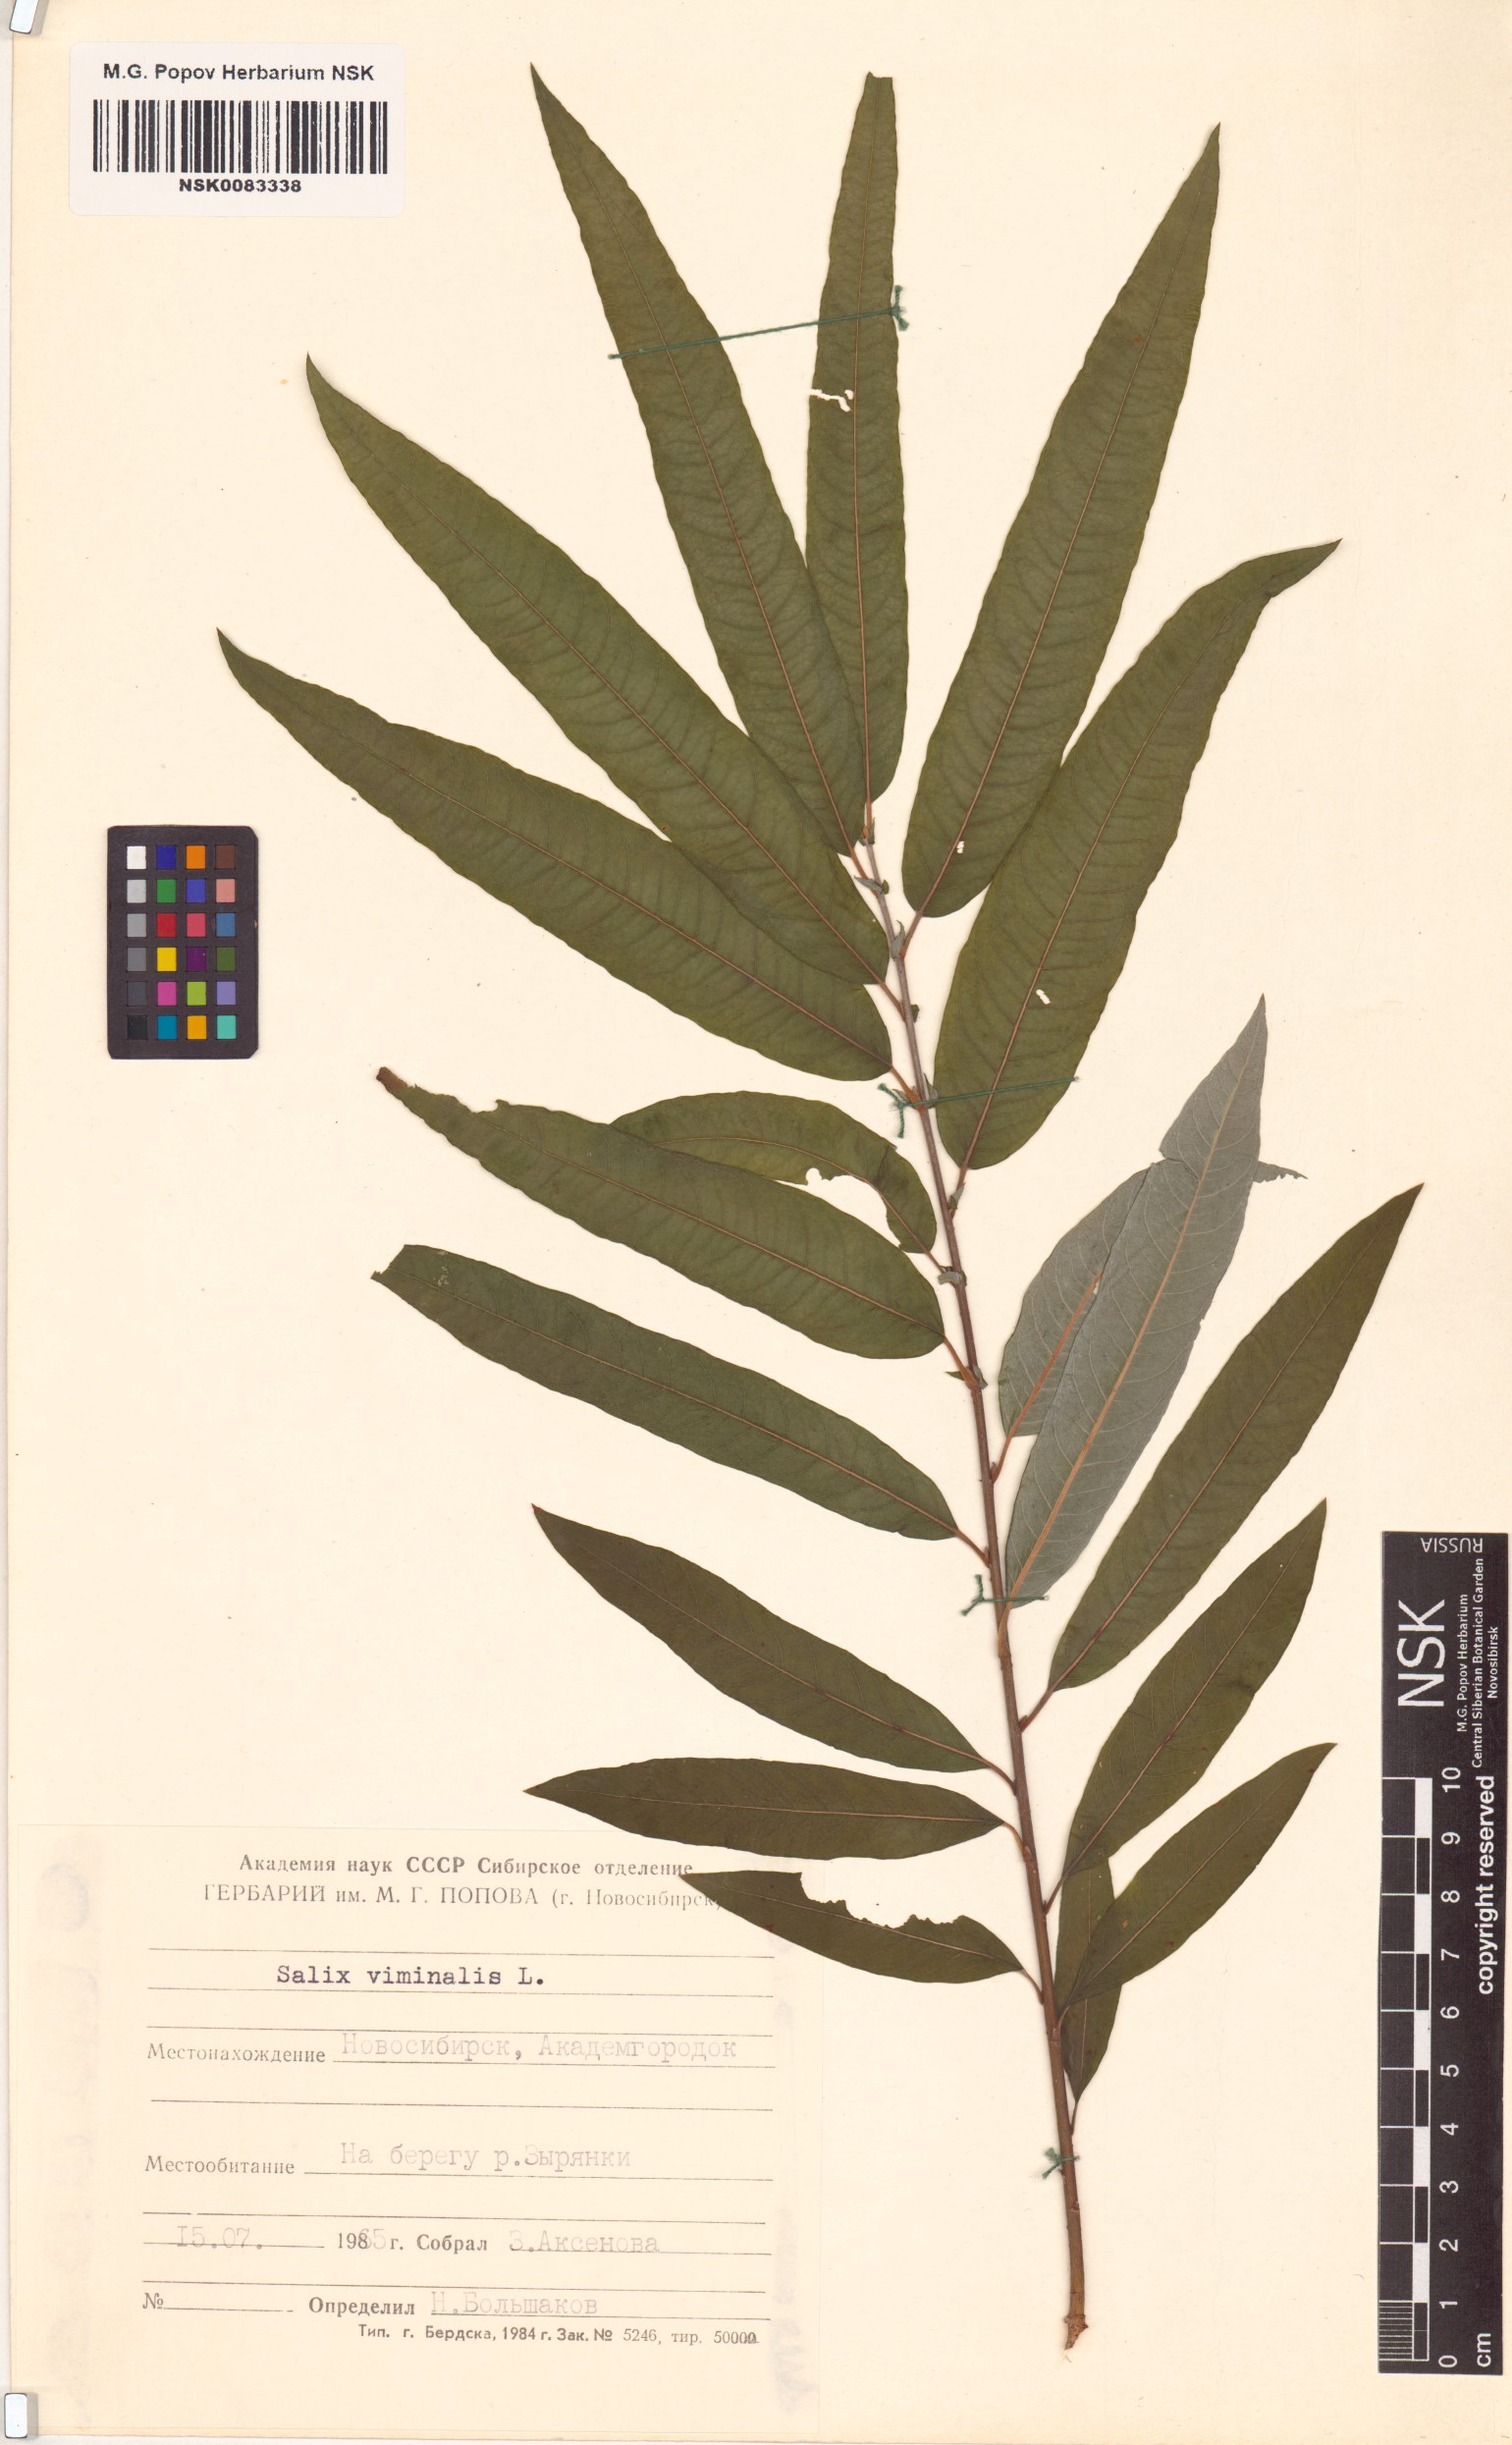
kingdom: Plantae
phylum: Tracheophyta
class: Magnoliopsida
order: Malpighiales
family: Salicaceae
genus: Salix
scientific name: Salix viminalis
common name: Osier
